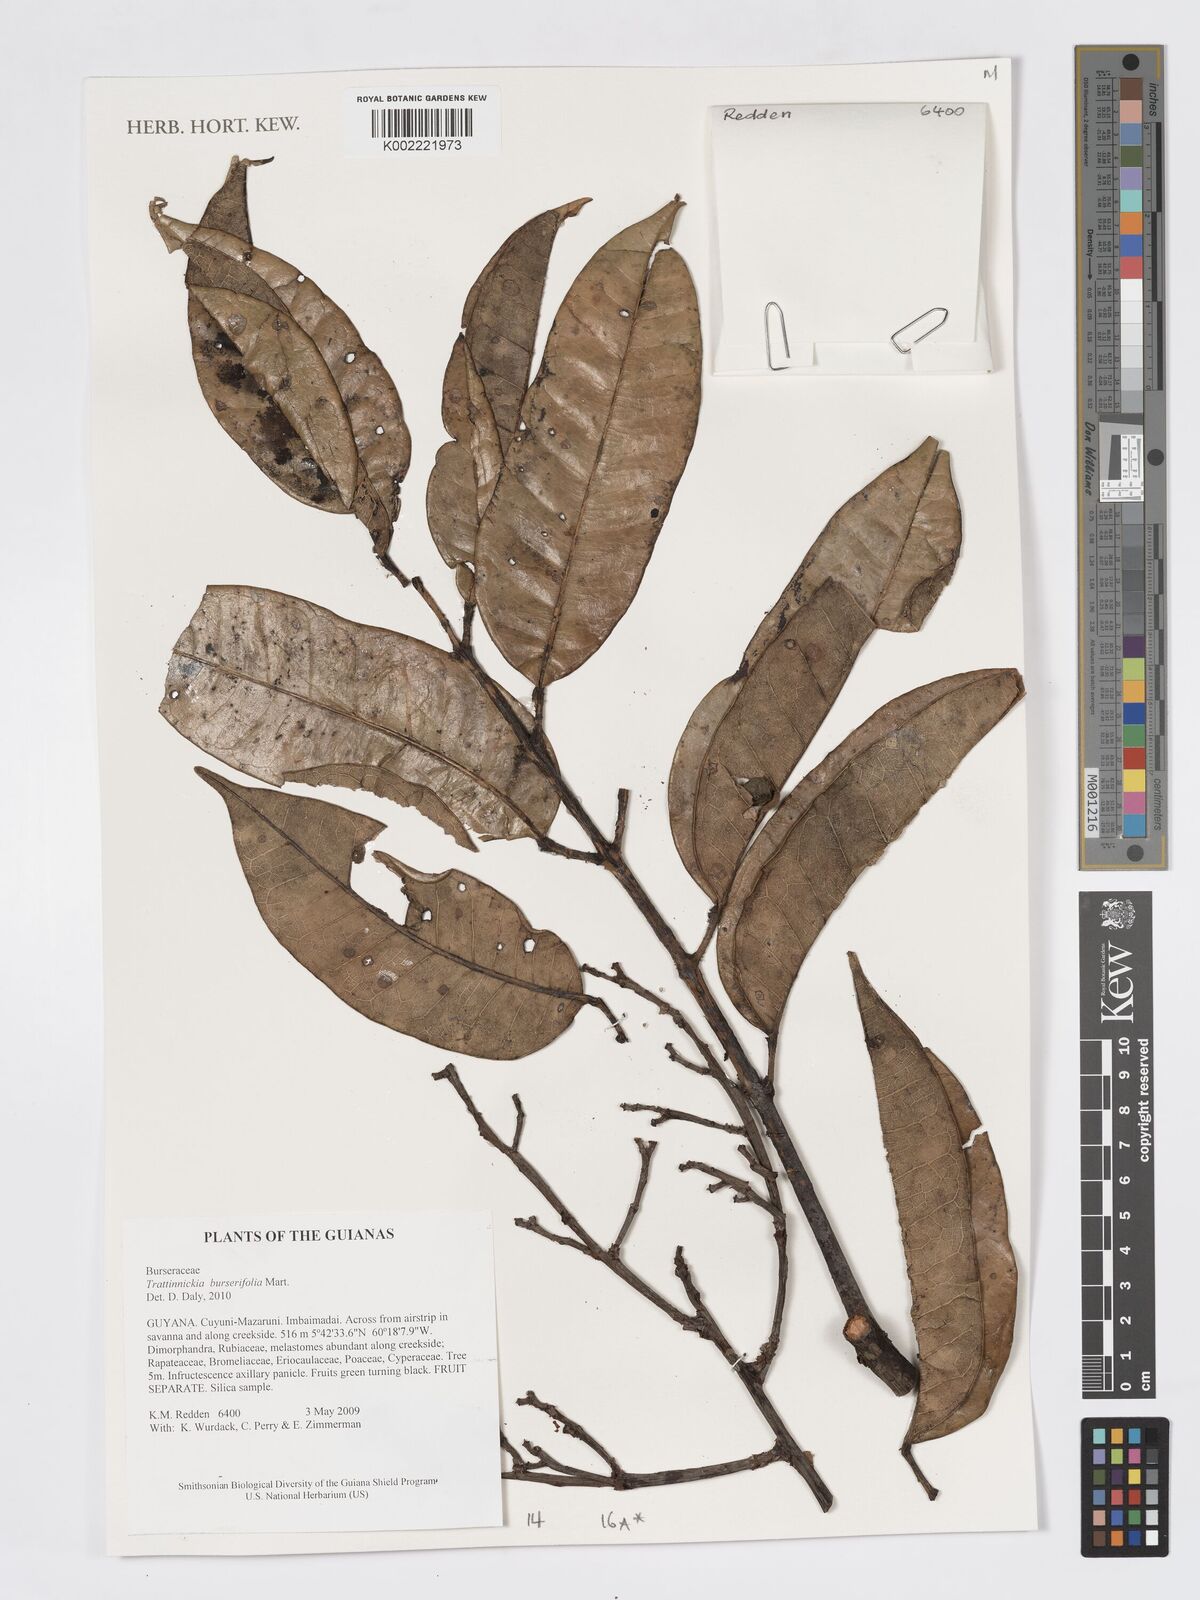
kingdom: Plantae
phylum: Tracheophyta
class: Magnoliopsida
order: Sapindales
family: Burseraceae
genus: Trattinnickia
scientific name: Trattinnickia burserifolia
